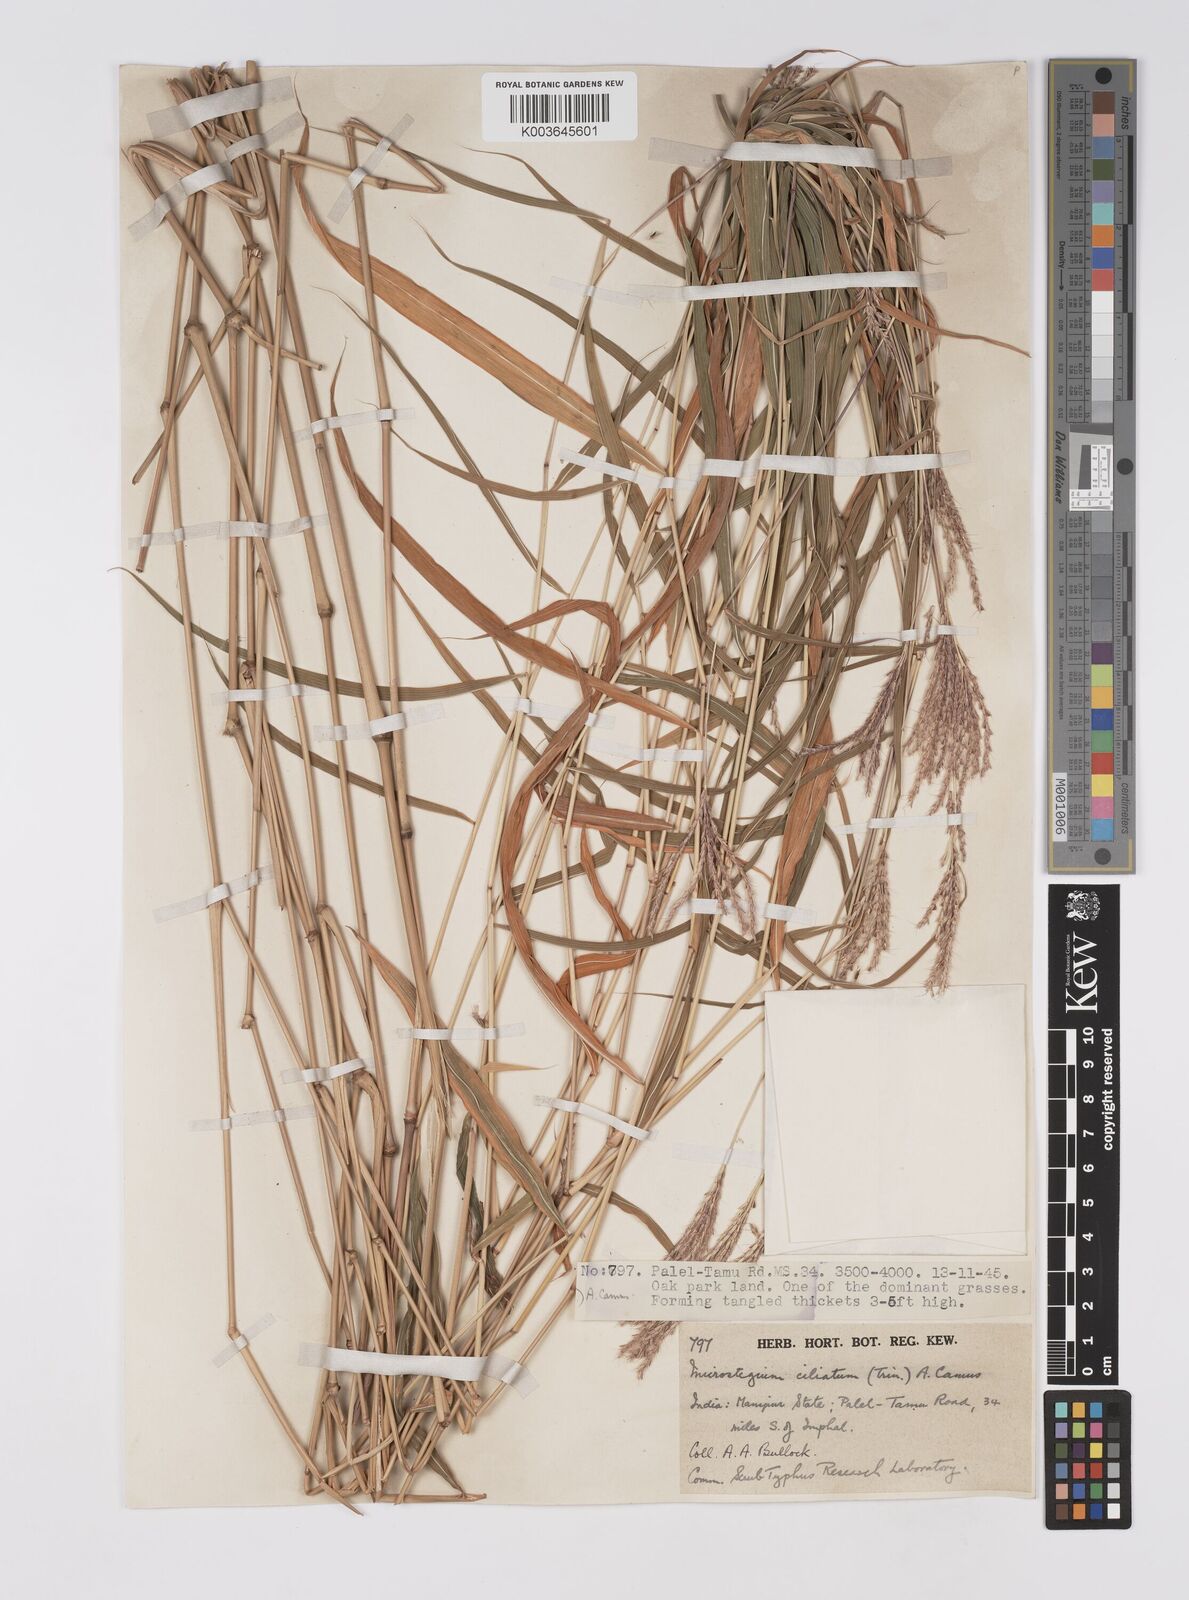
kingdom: Plantae
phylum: Tracheophyta
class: Liliopsida
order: Poales
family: Poaceae
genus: Microstegium
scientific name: Microstegium fasciculatum
